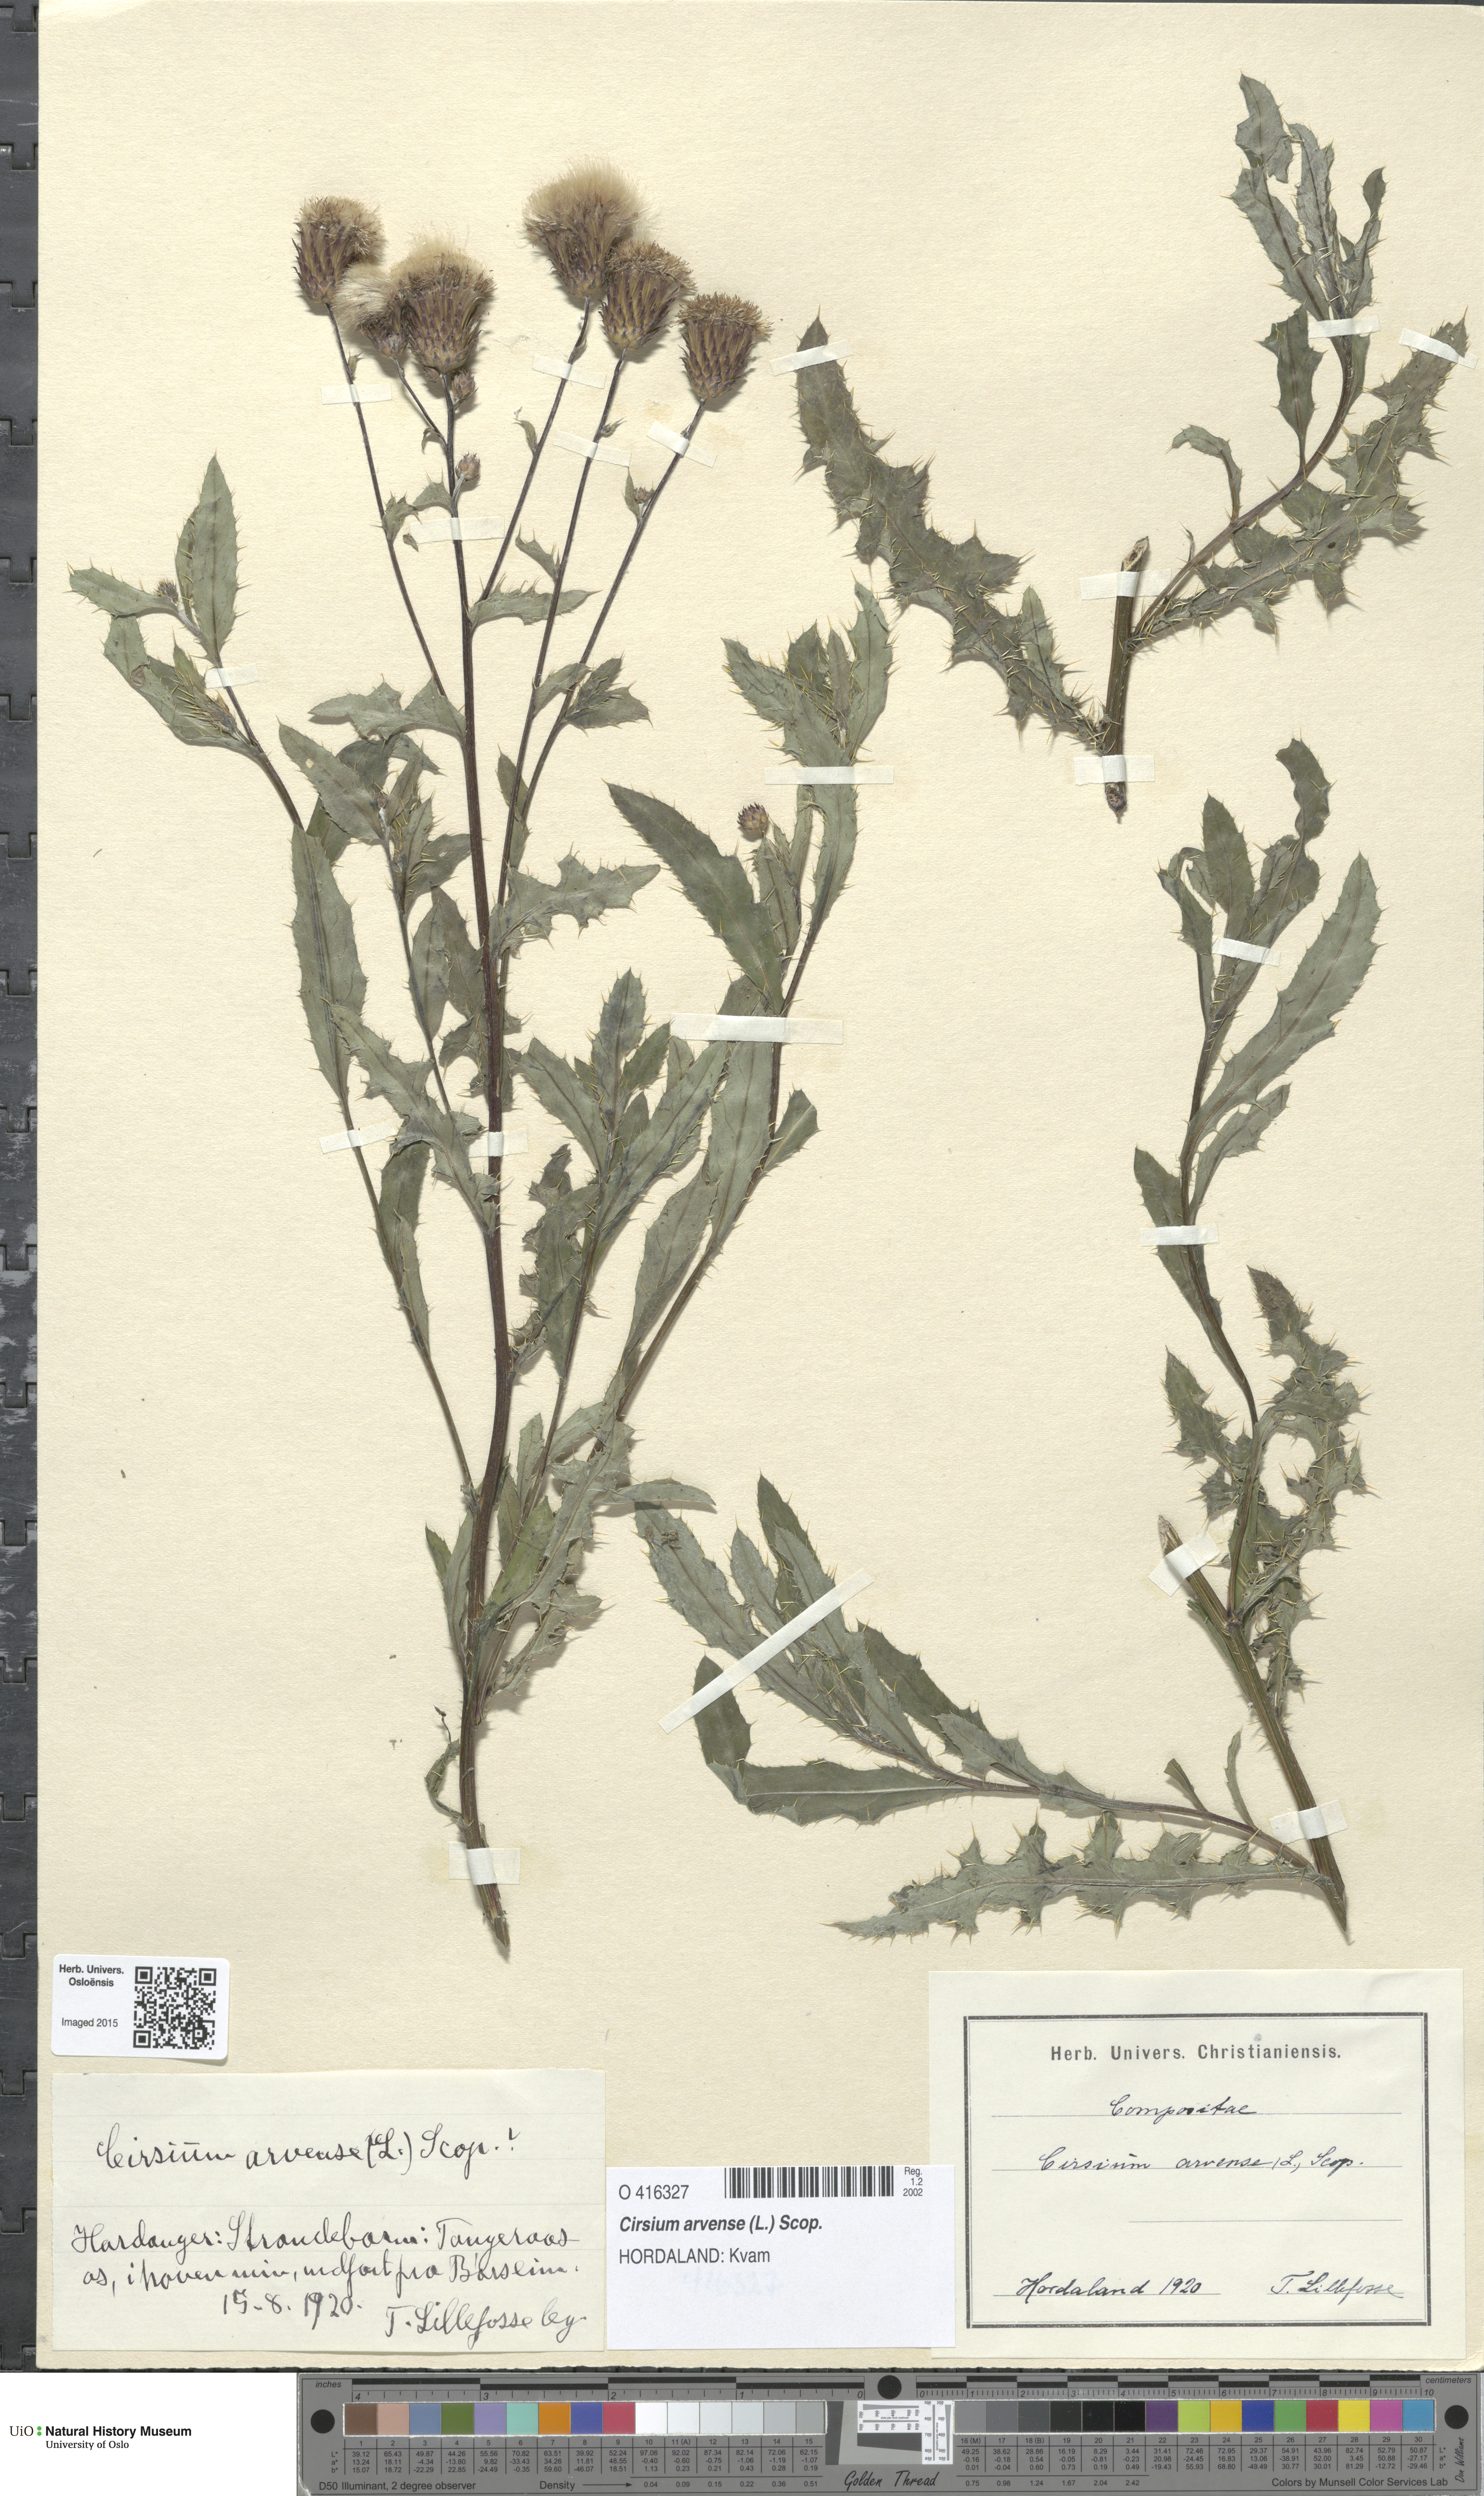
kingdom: Plantae
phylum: Tracheophyta
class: Magnoliopsida
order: Asterales
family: Asteraceae
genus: Cirsium
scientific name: Cirsium arvense
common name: Creeping thistle
